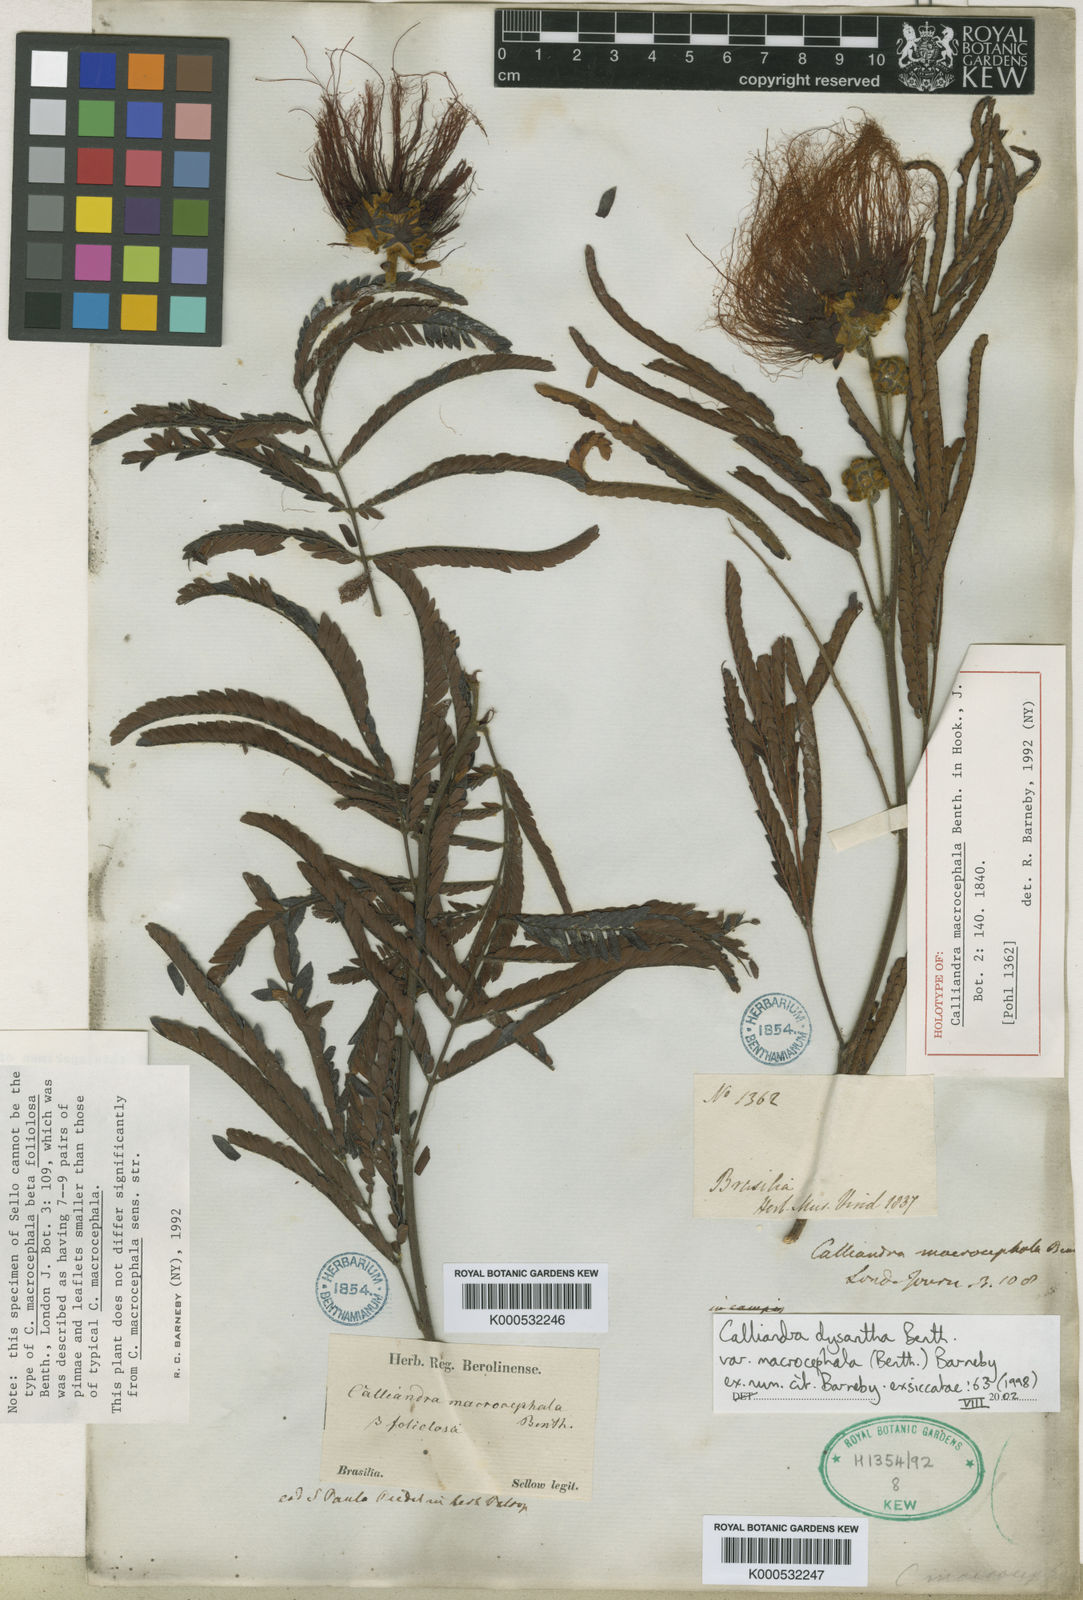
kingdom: Plantae
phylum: Tracheophyta
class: Magnoliopsida
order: Fabales
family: Fabaceae
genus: Calliandra
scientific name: Calliandra dysantha
